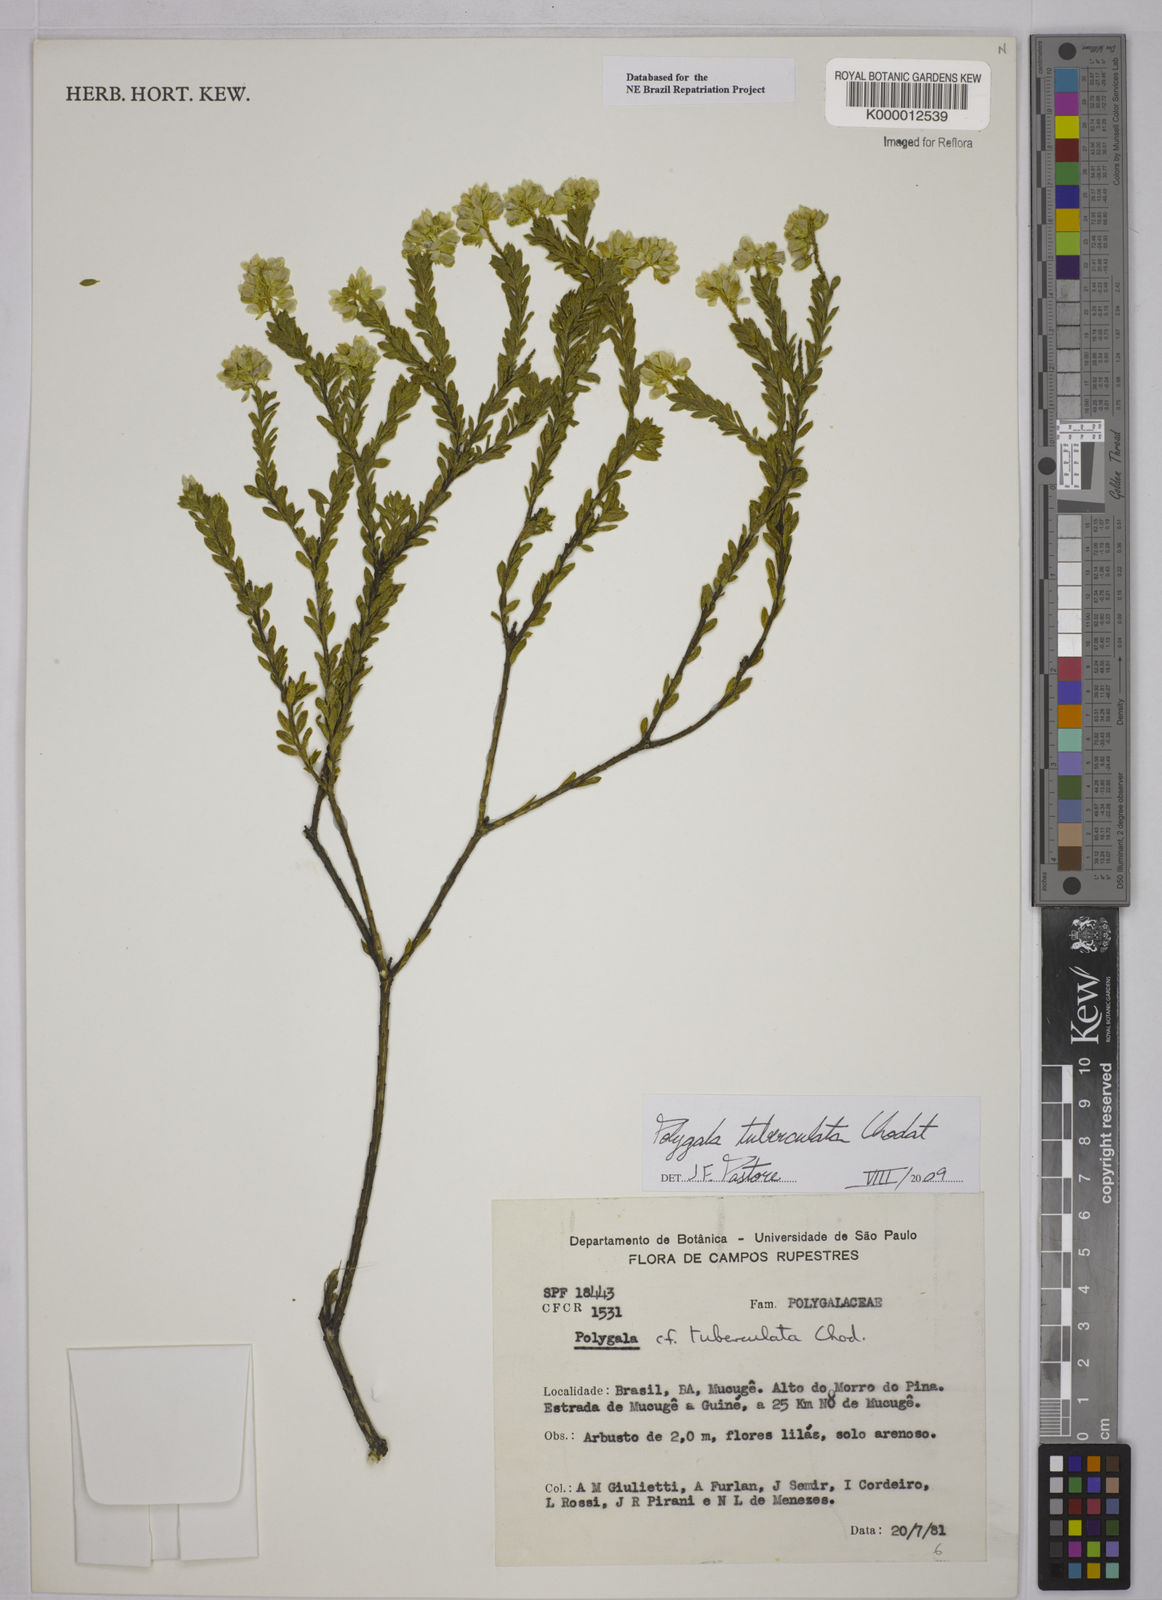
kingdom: Plantae
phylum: Tracheophyta
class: Magnoliopsida
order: Fabales
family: Polygalaceae
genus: Polygala
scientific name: Polygala tuberculata
